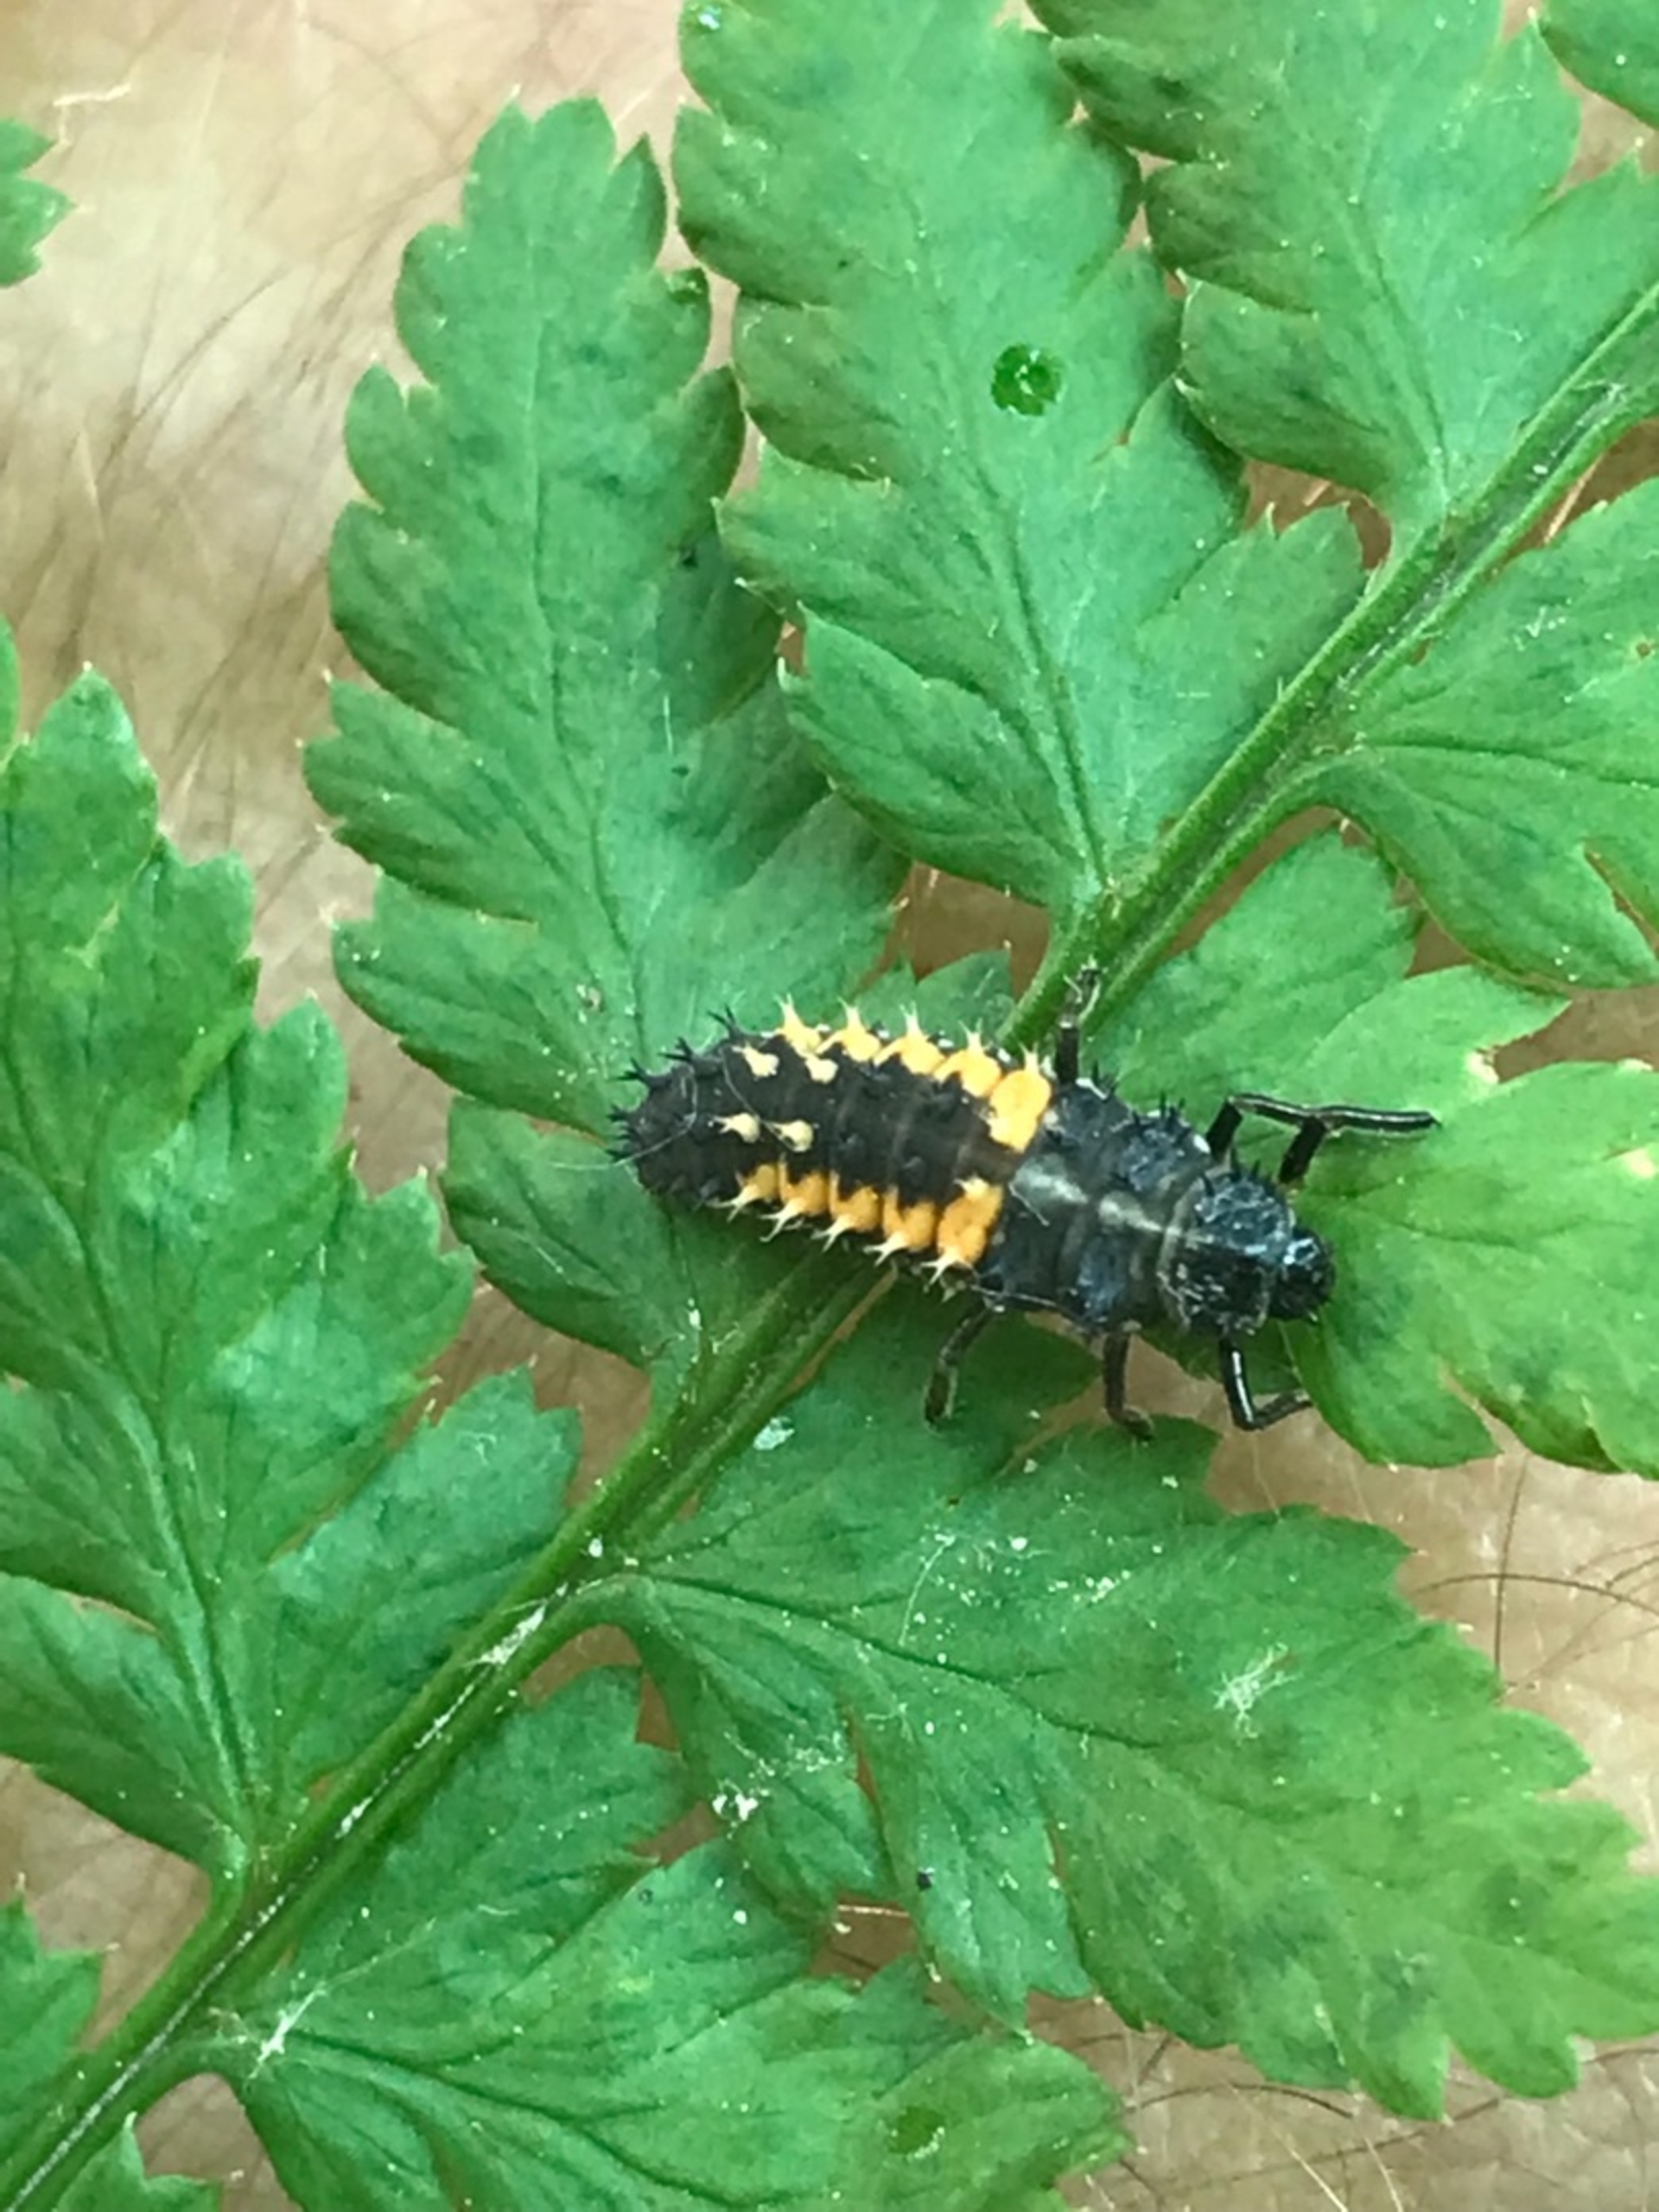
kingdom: Animalia
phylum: Arthropoda
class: Insecta
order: Coleoptera
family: Coccinellidae
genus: Harmonia
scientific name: Harmonia axyridis
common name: Harlekinmariehøne
